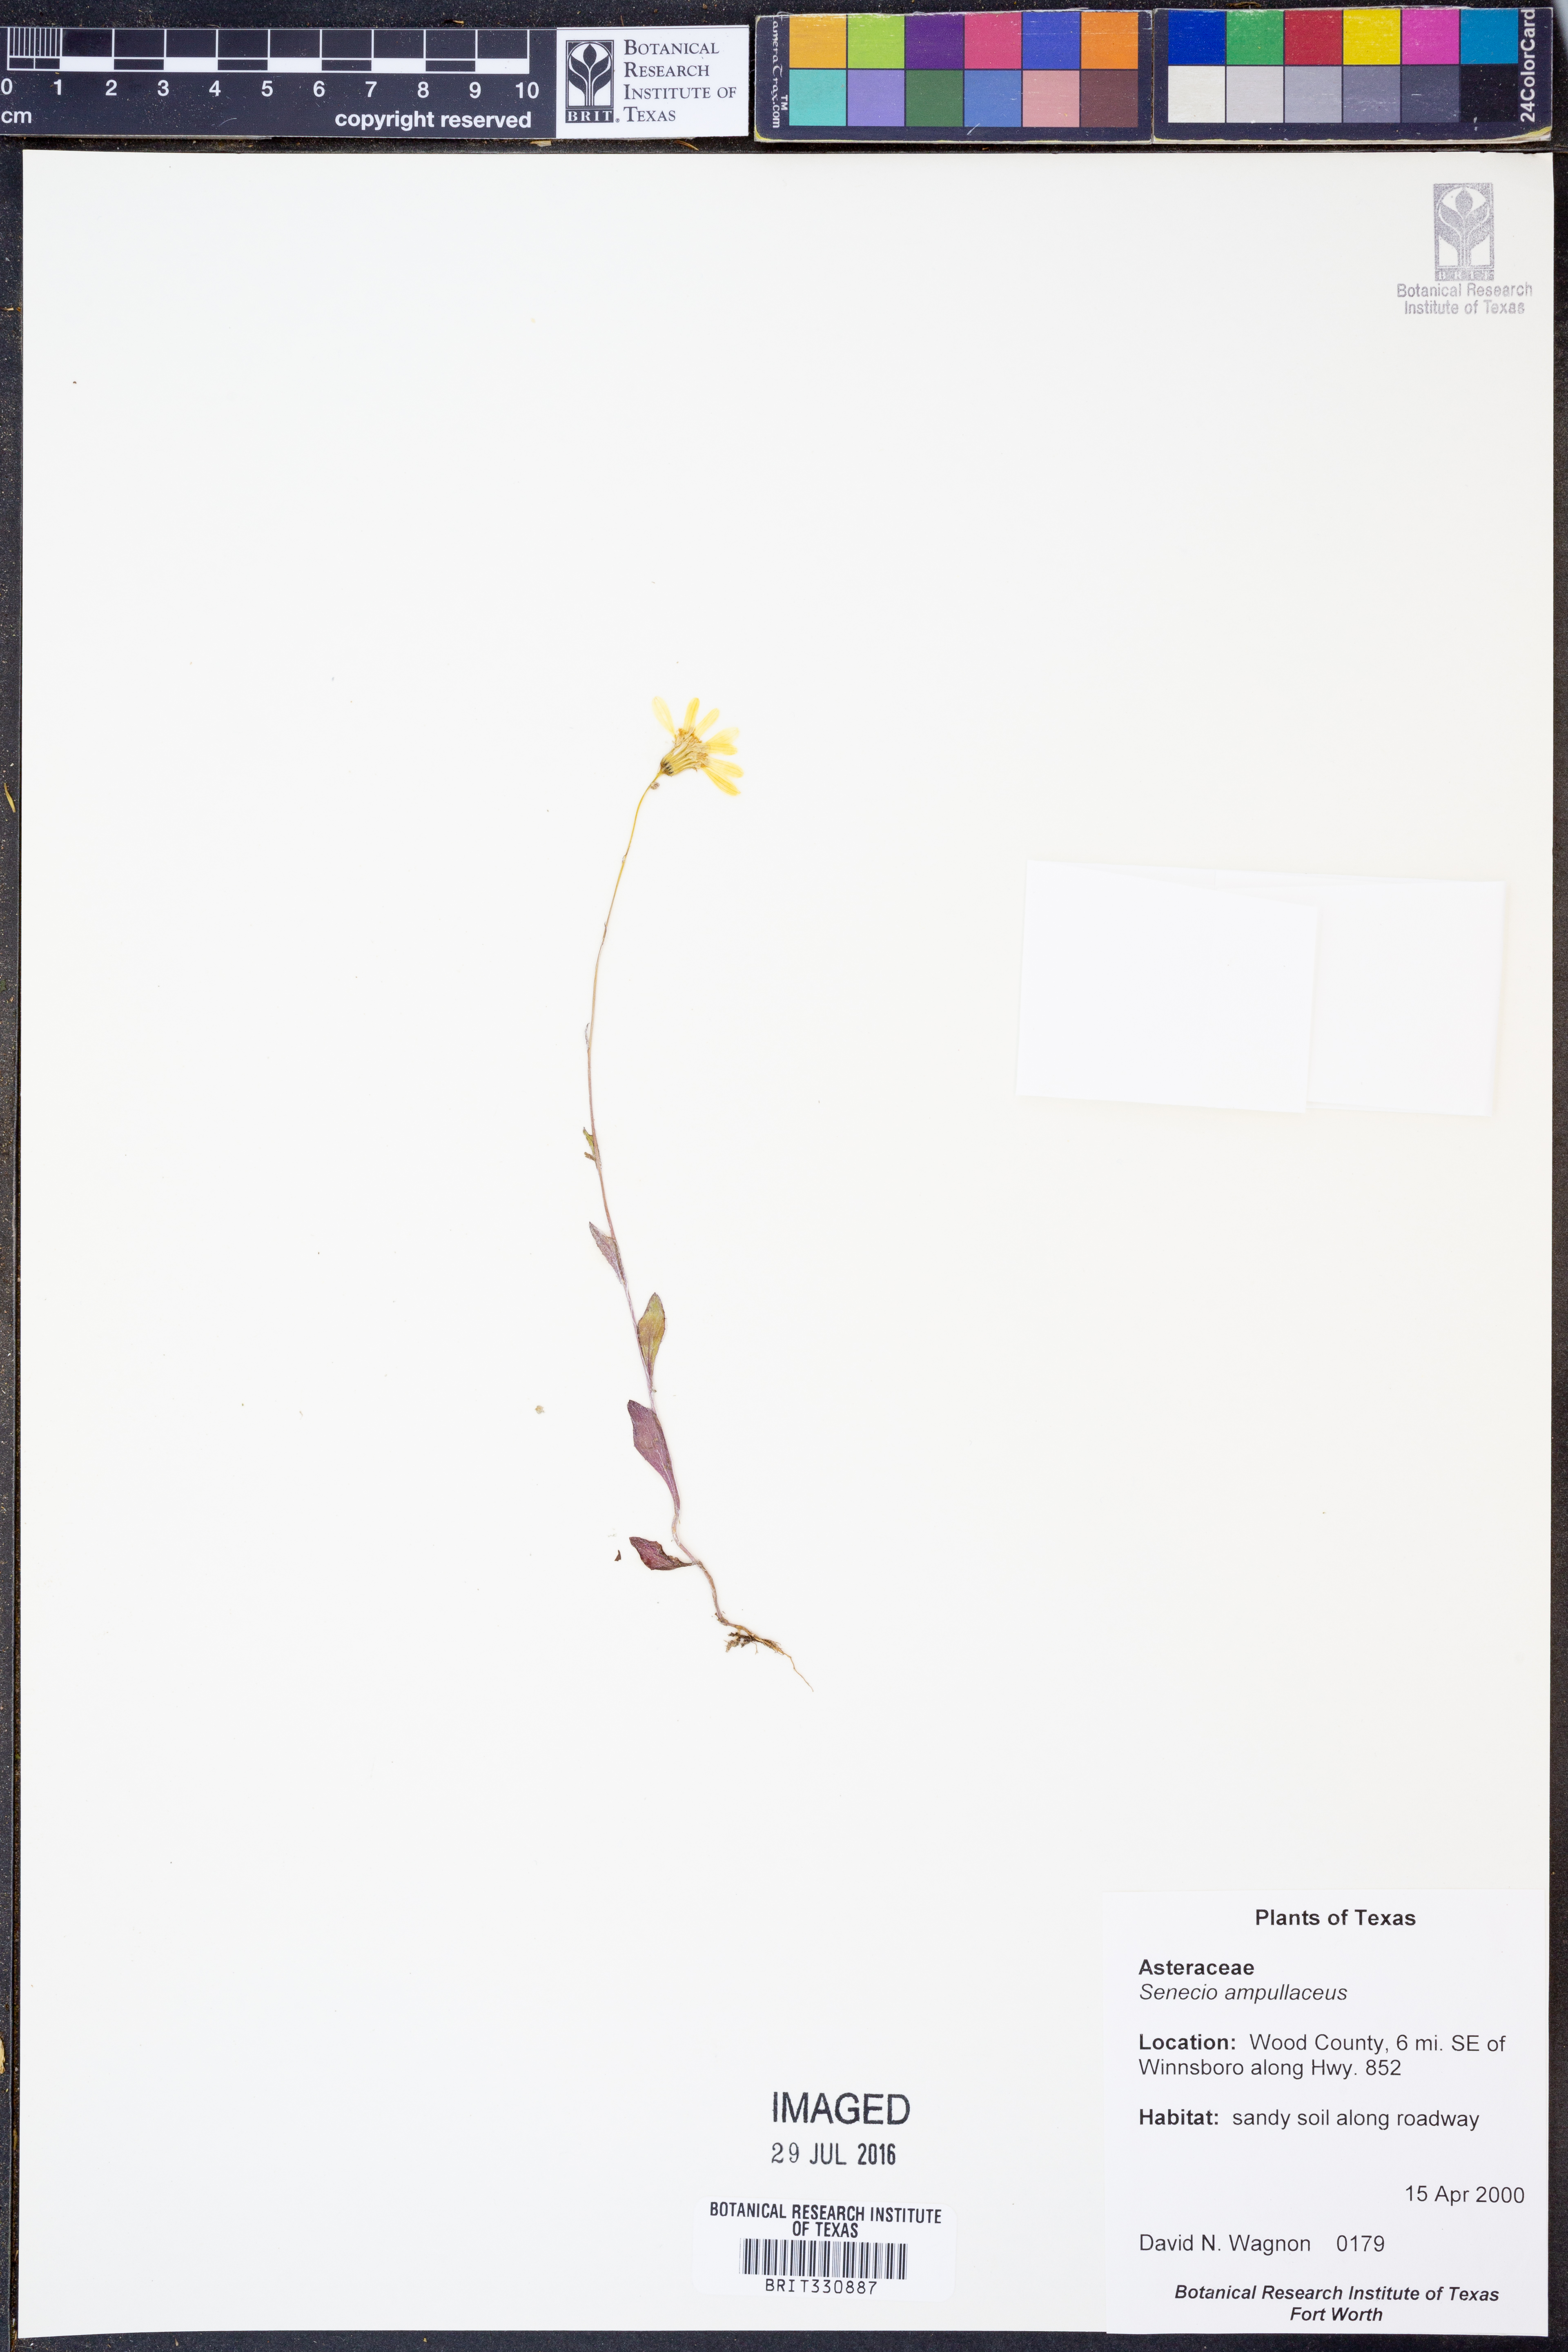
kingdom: Plantae
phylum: Tracheophyta
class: Magnoliopsida
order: Asterales
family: Asteraceae
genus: Senecio
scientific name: Senecio ampullaceus
